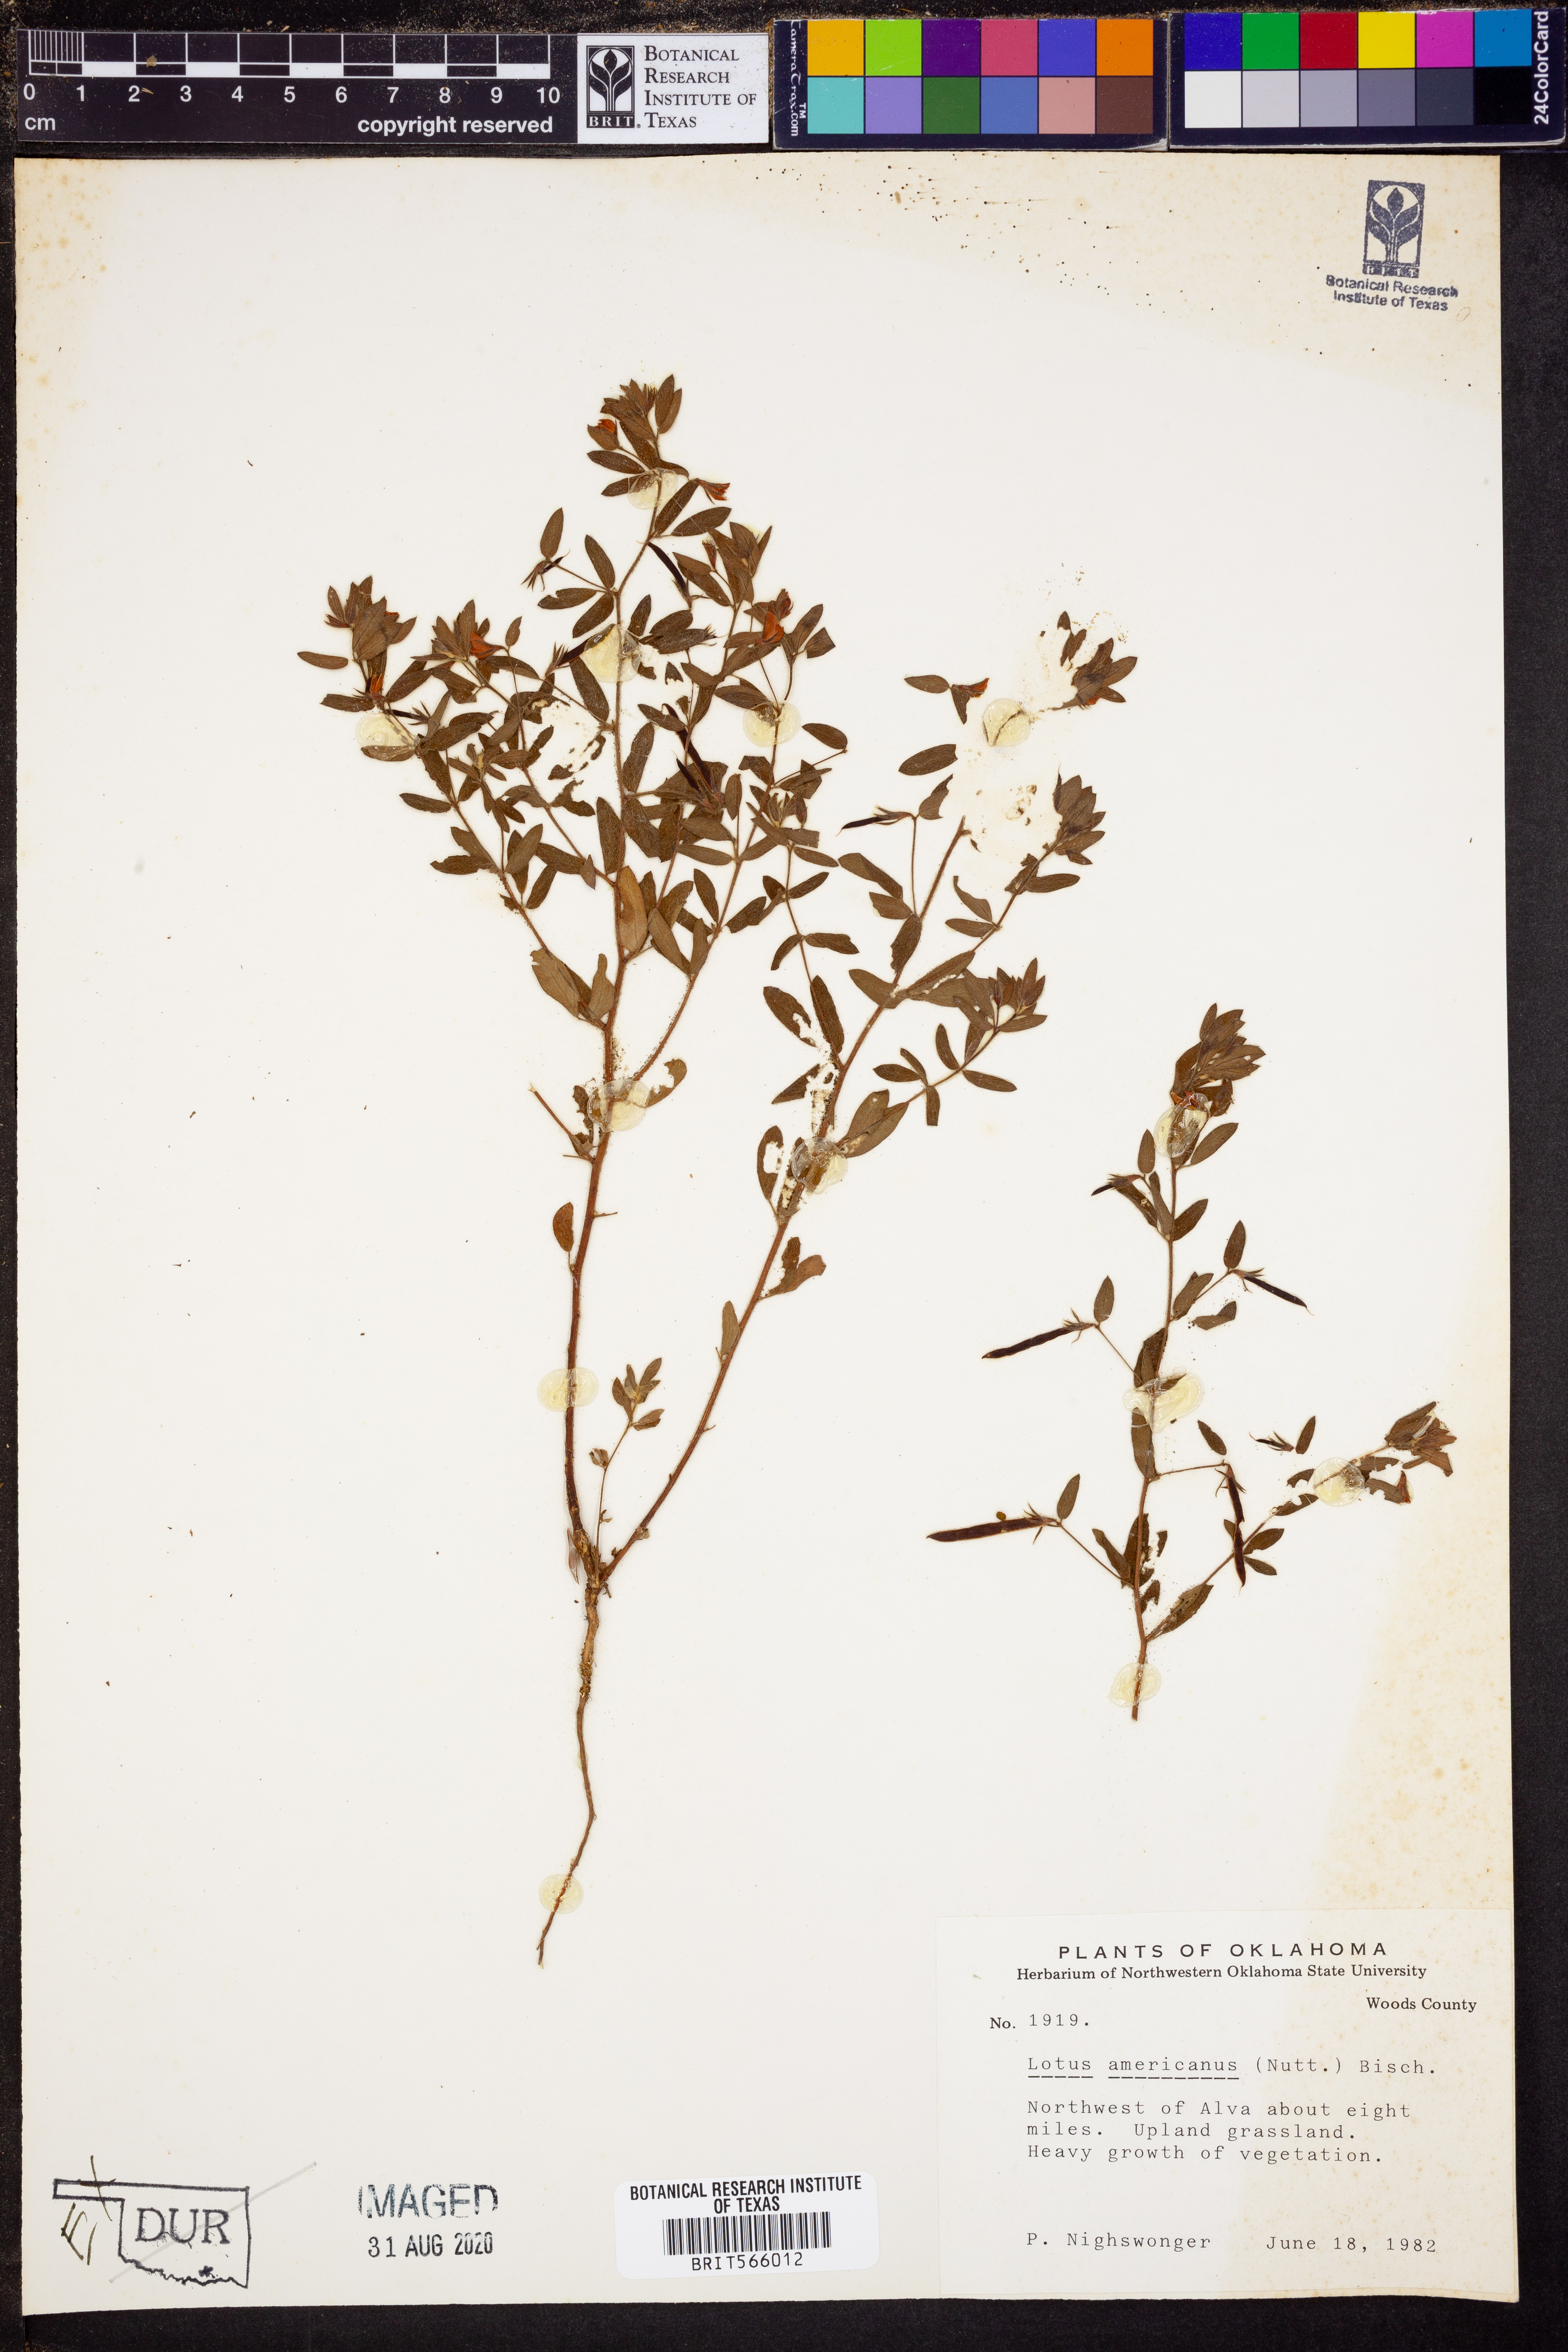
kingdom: Plantae
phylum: Tracheophyta
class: Magnoliopsida
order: Fabales
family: Fabaceae
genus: Acmispon
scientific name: Acmispon americanus
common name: American bird's-foot trefoil
